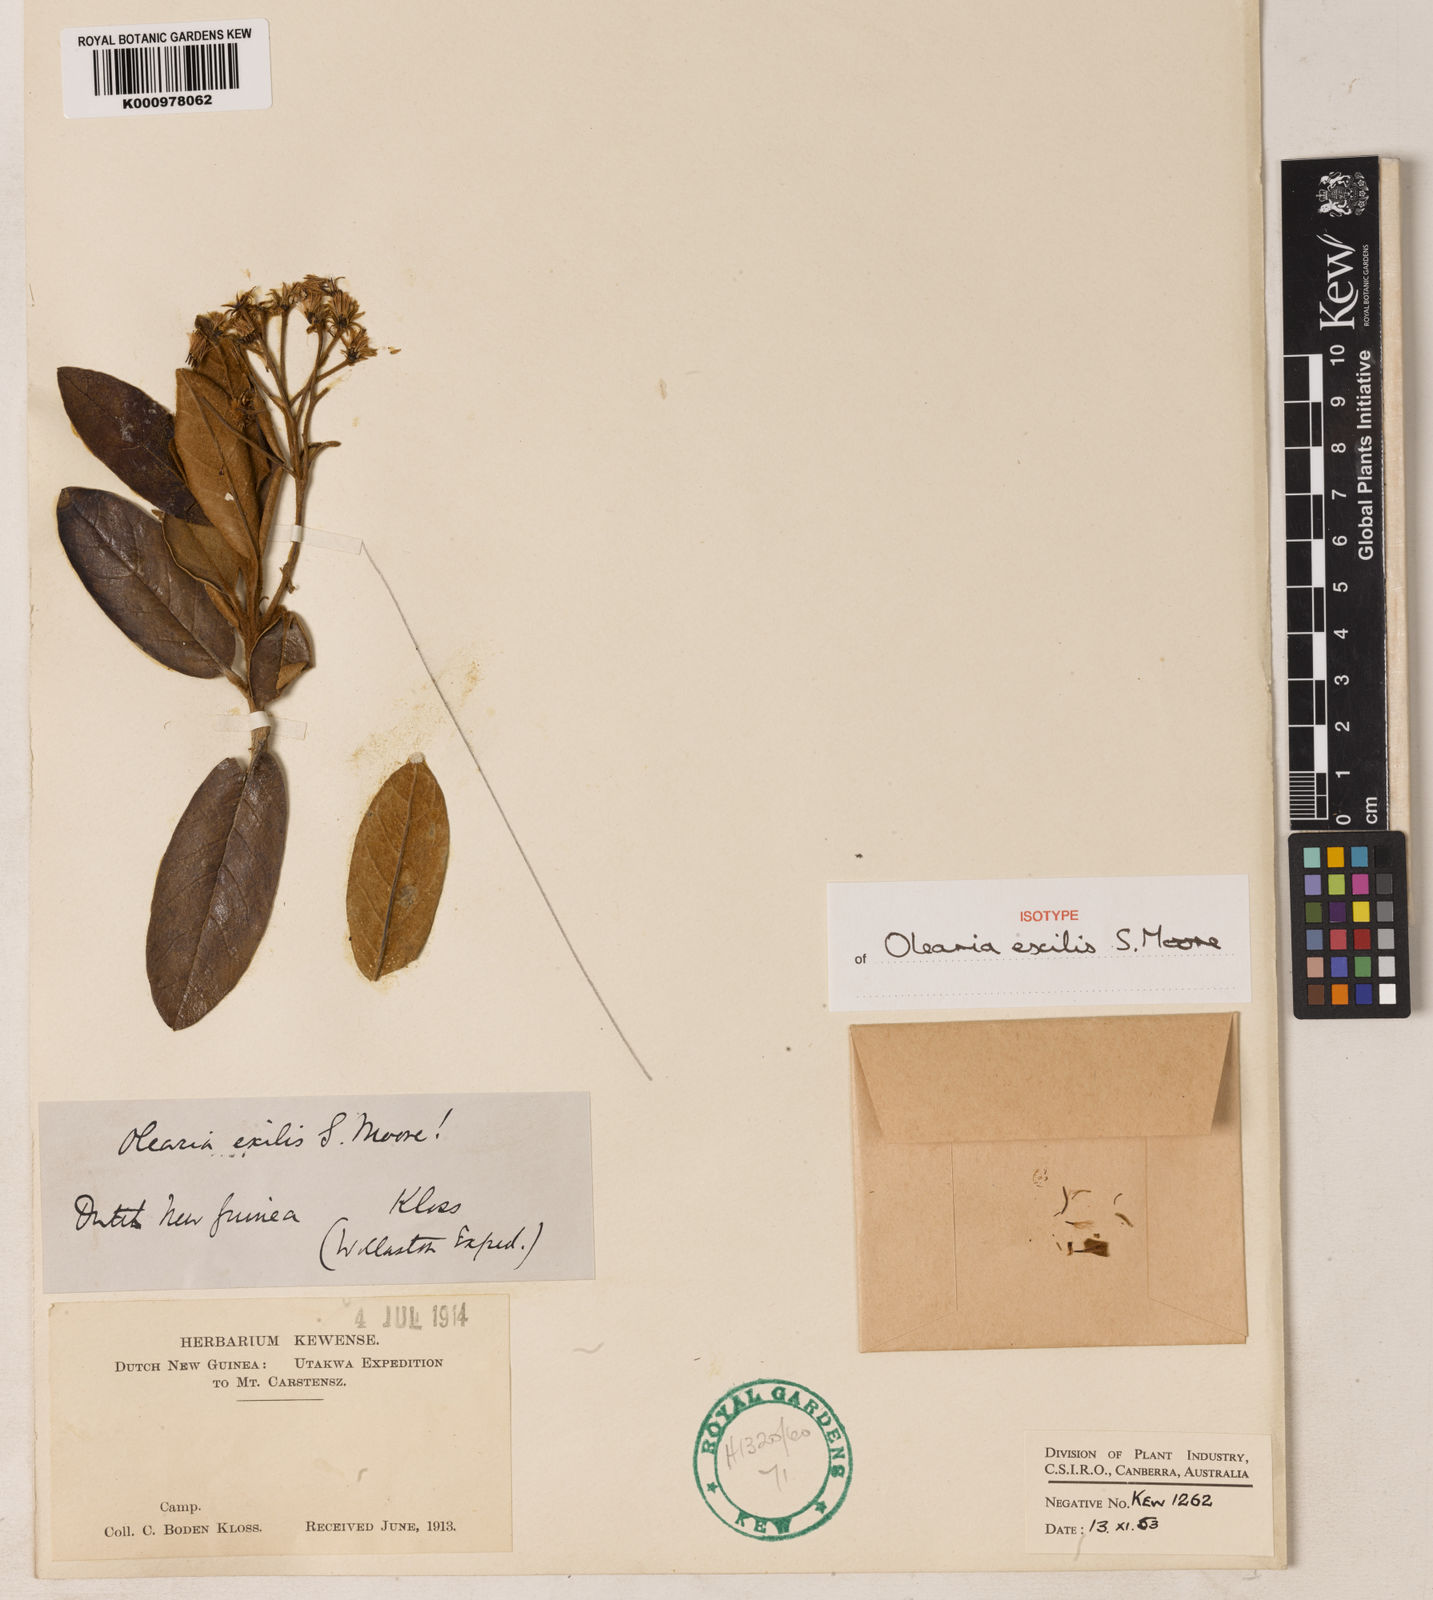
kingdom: Plantae
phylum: Tracheophyta
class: Magnoliopsida
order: Asterales
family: Asteraceae
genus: Olearia
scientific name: Olearia exilis
